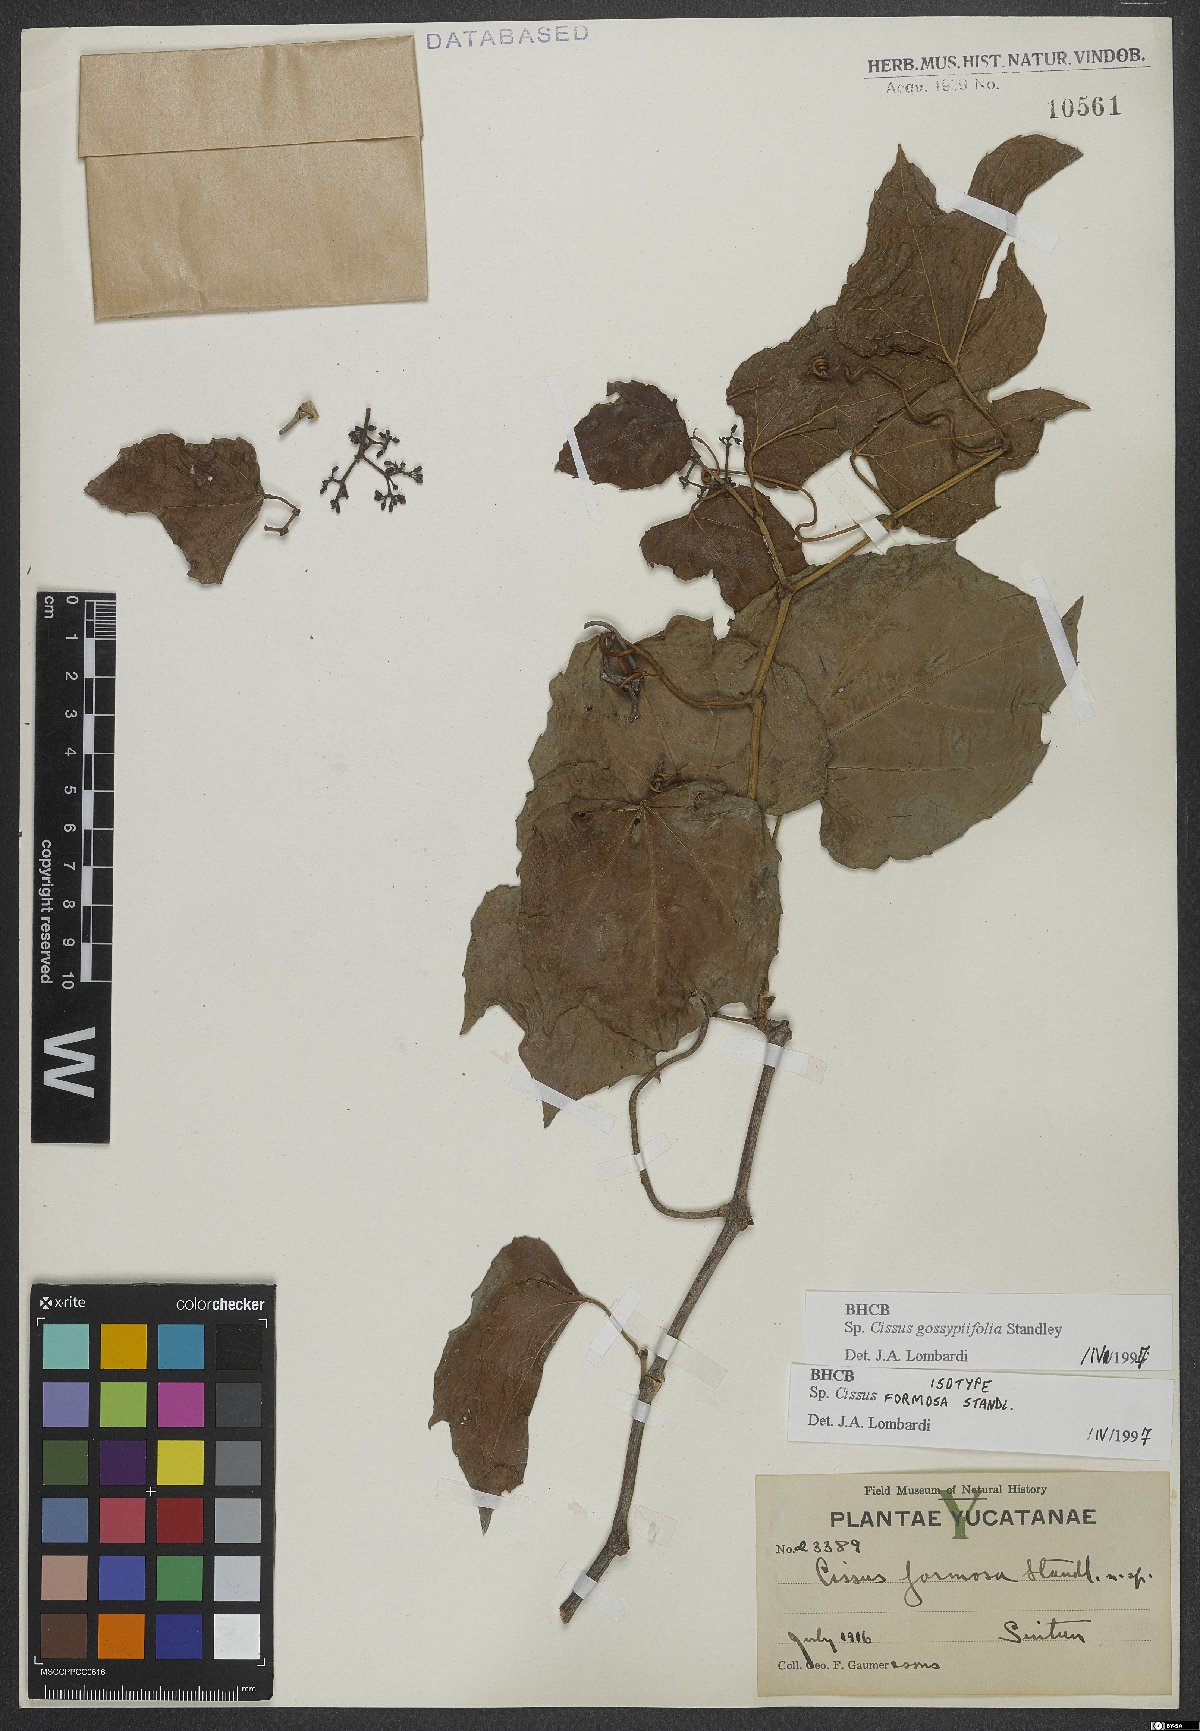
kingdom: Plantae
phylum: Tracheophyta
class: Magnoliopsida
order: Vitales
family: Vitaceae
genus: Cissus
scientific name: Cissus gossypiifolia
